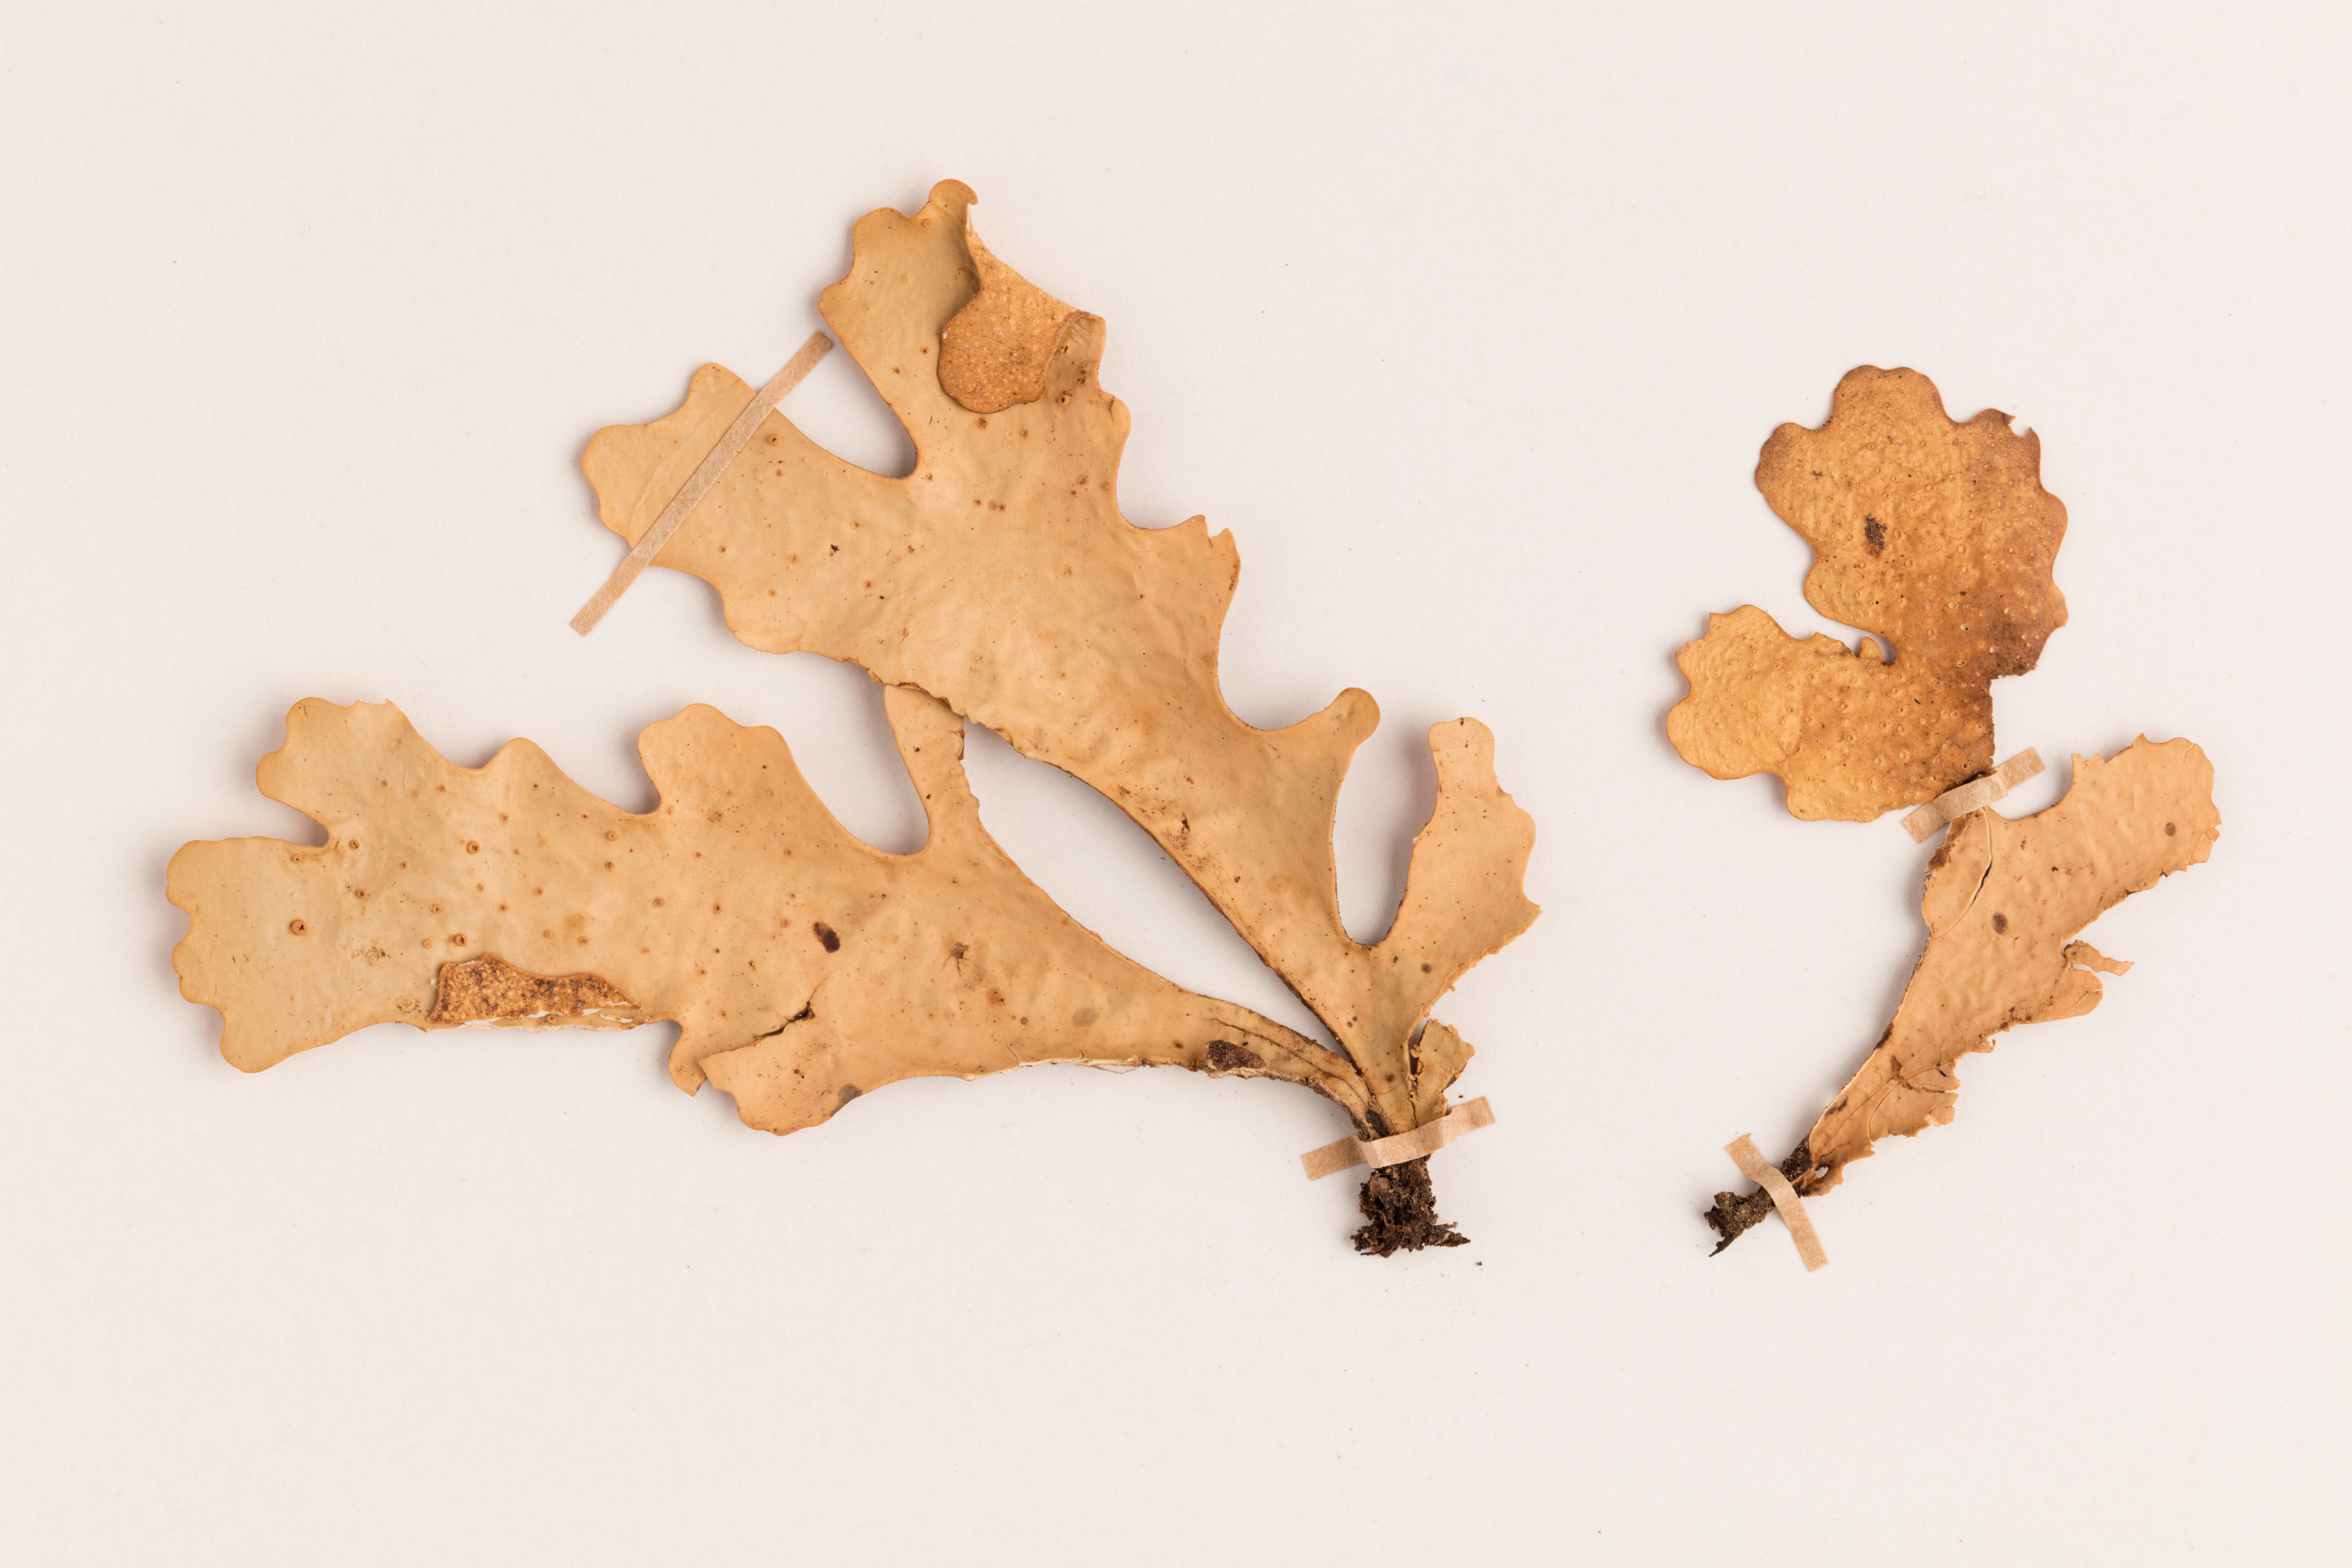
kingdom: Fungi
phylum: Ascomycota
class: Lecanoromycetes
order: Peltigerales
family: Lobariaceae
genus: Sticta
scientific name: Sticta latifrons
